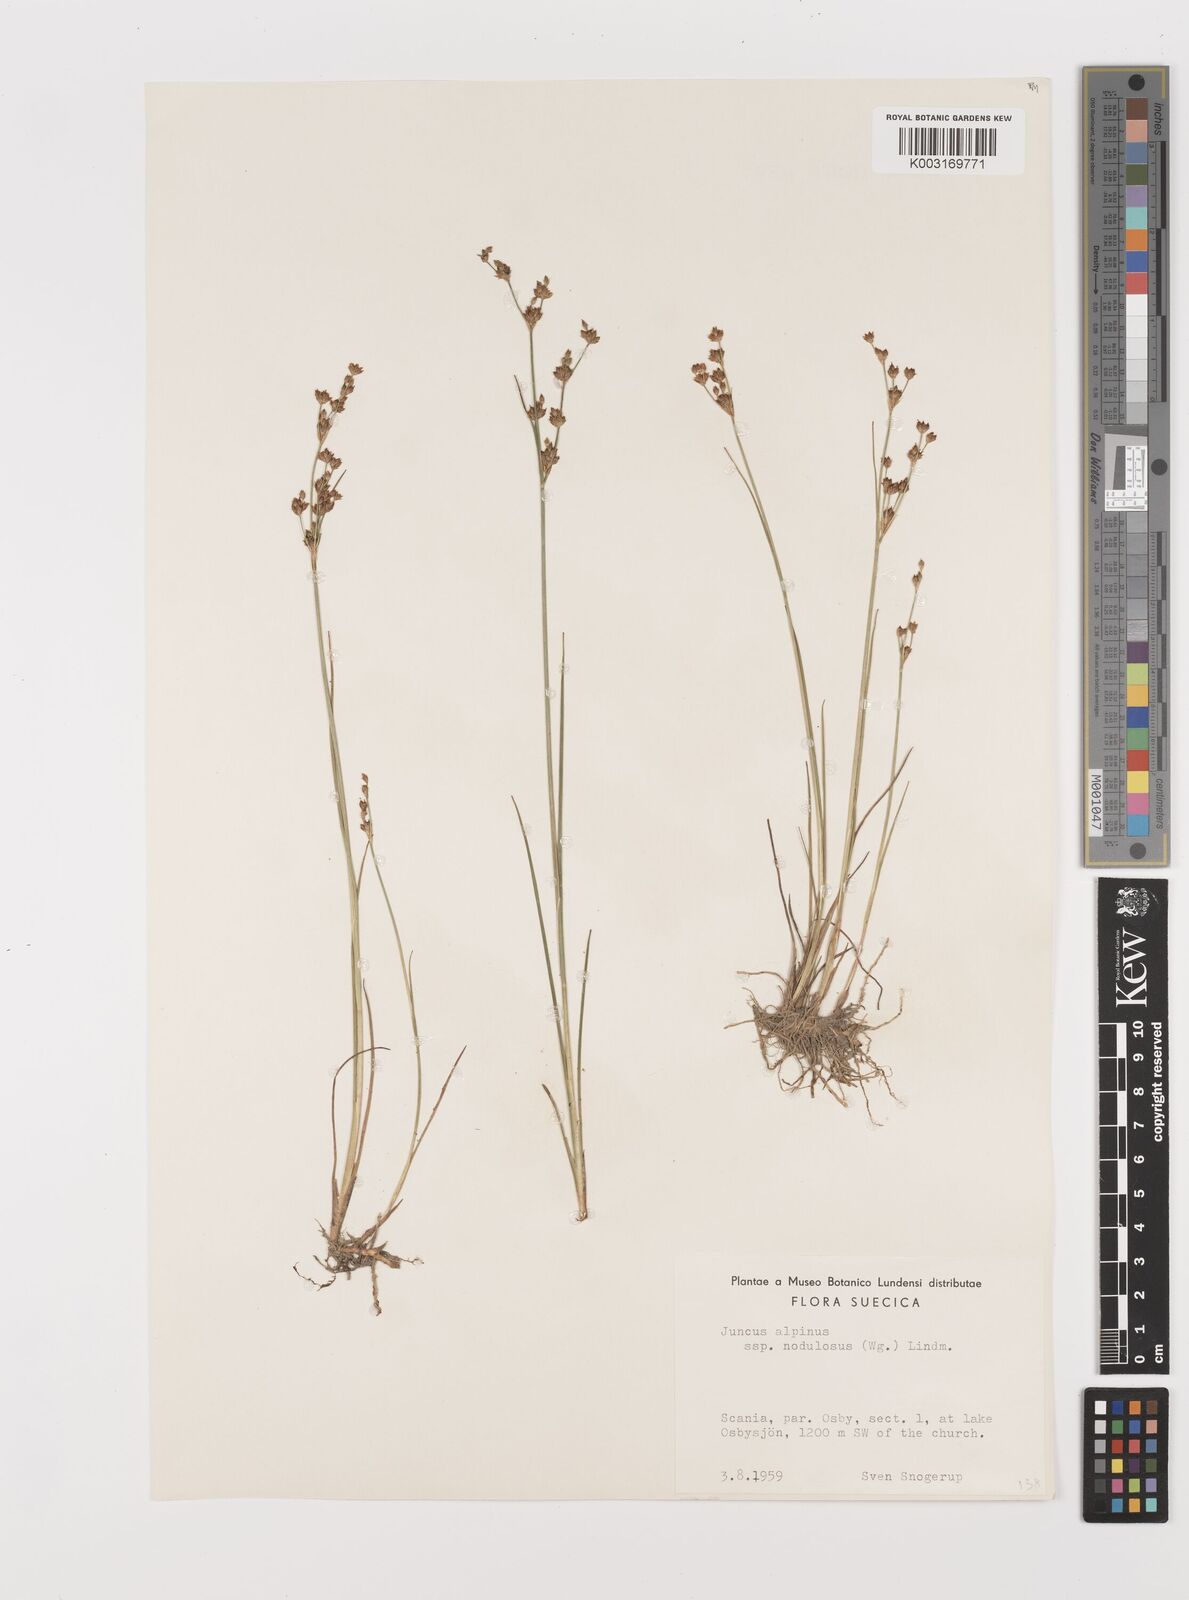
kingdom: Plantae
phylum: Tracheophyta
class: Liliopsida
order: Poales
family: Juncaceae
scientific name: Juncaceae
